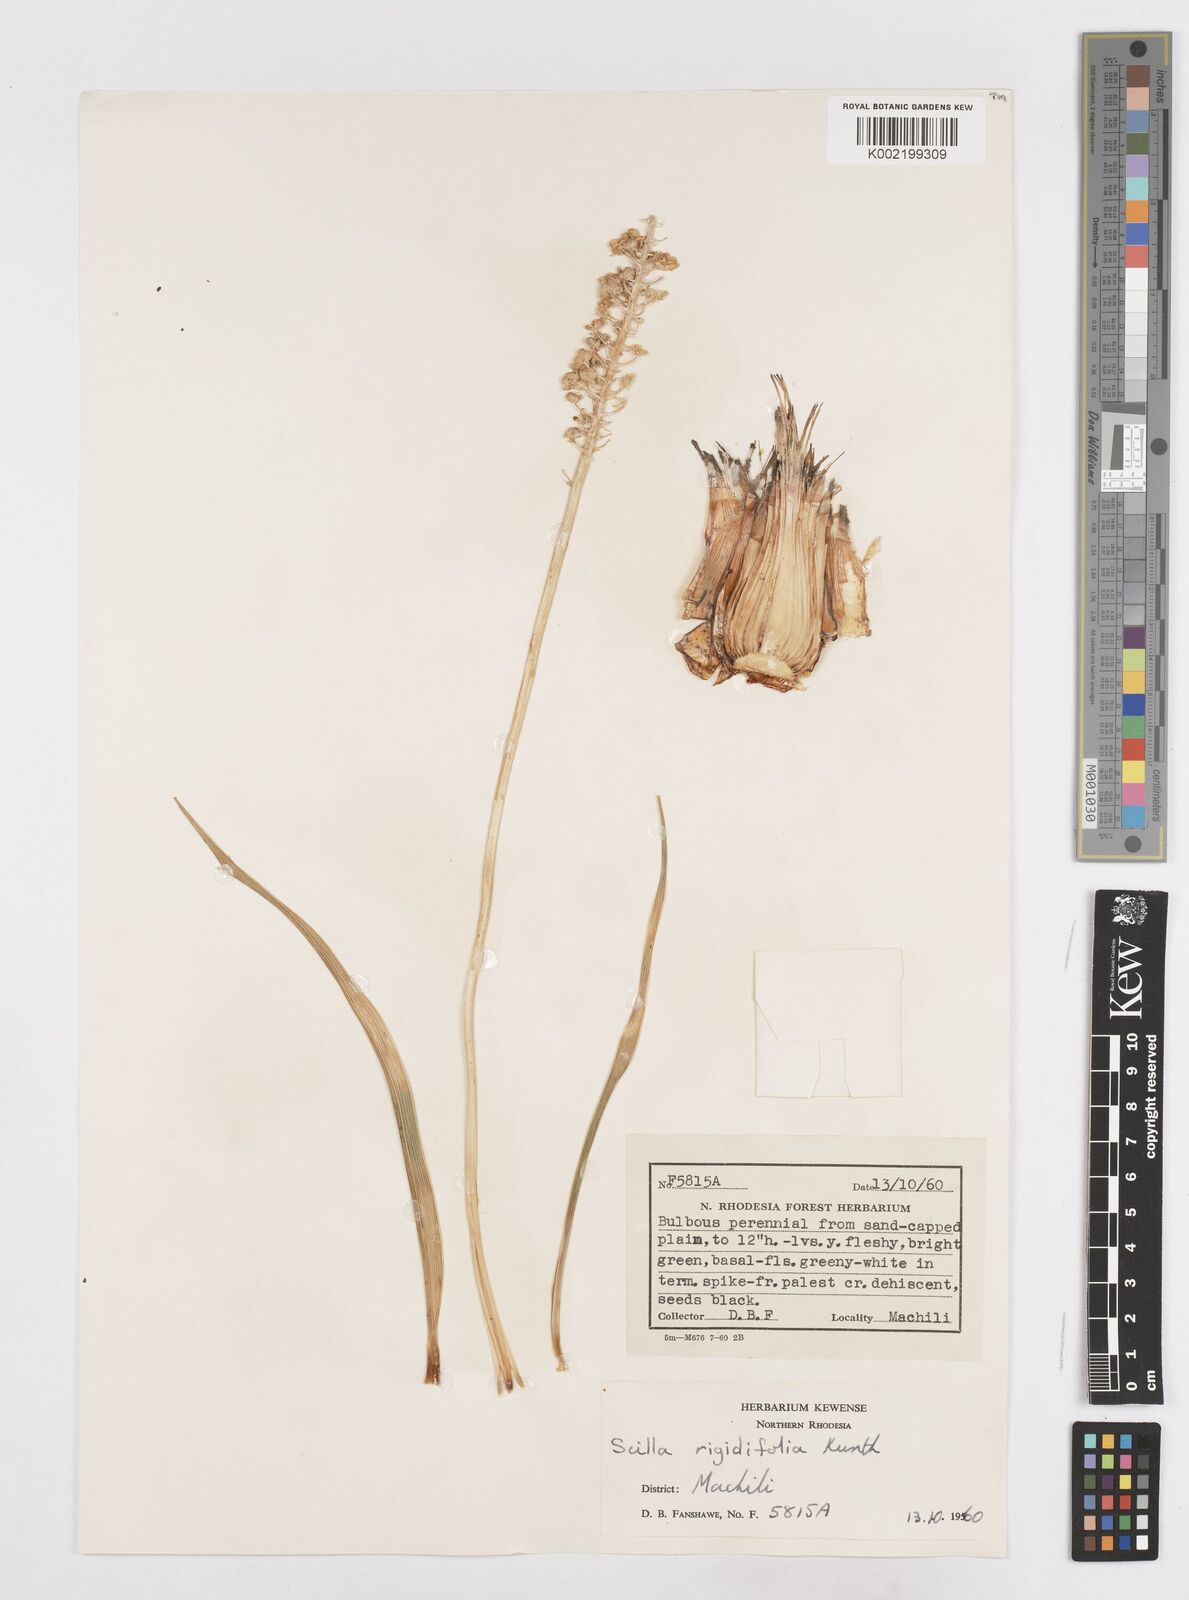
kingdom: Plantae
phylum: Tracheophyta
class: Liliopsida
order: Asparagales
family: Asparagaceae
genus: Schizocarphus
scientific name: Schizocarphus nervosus
